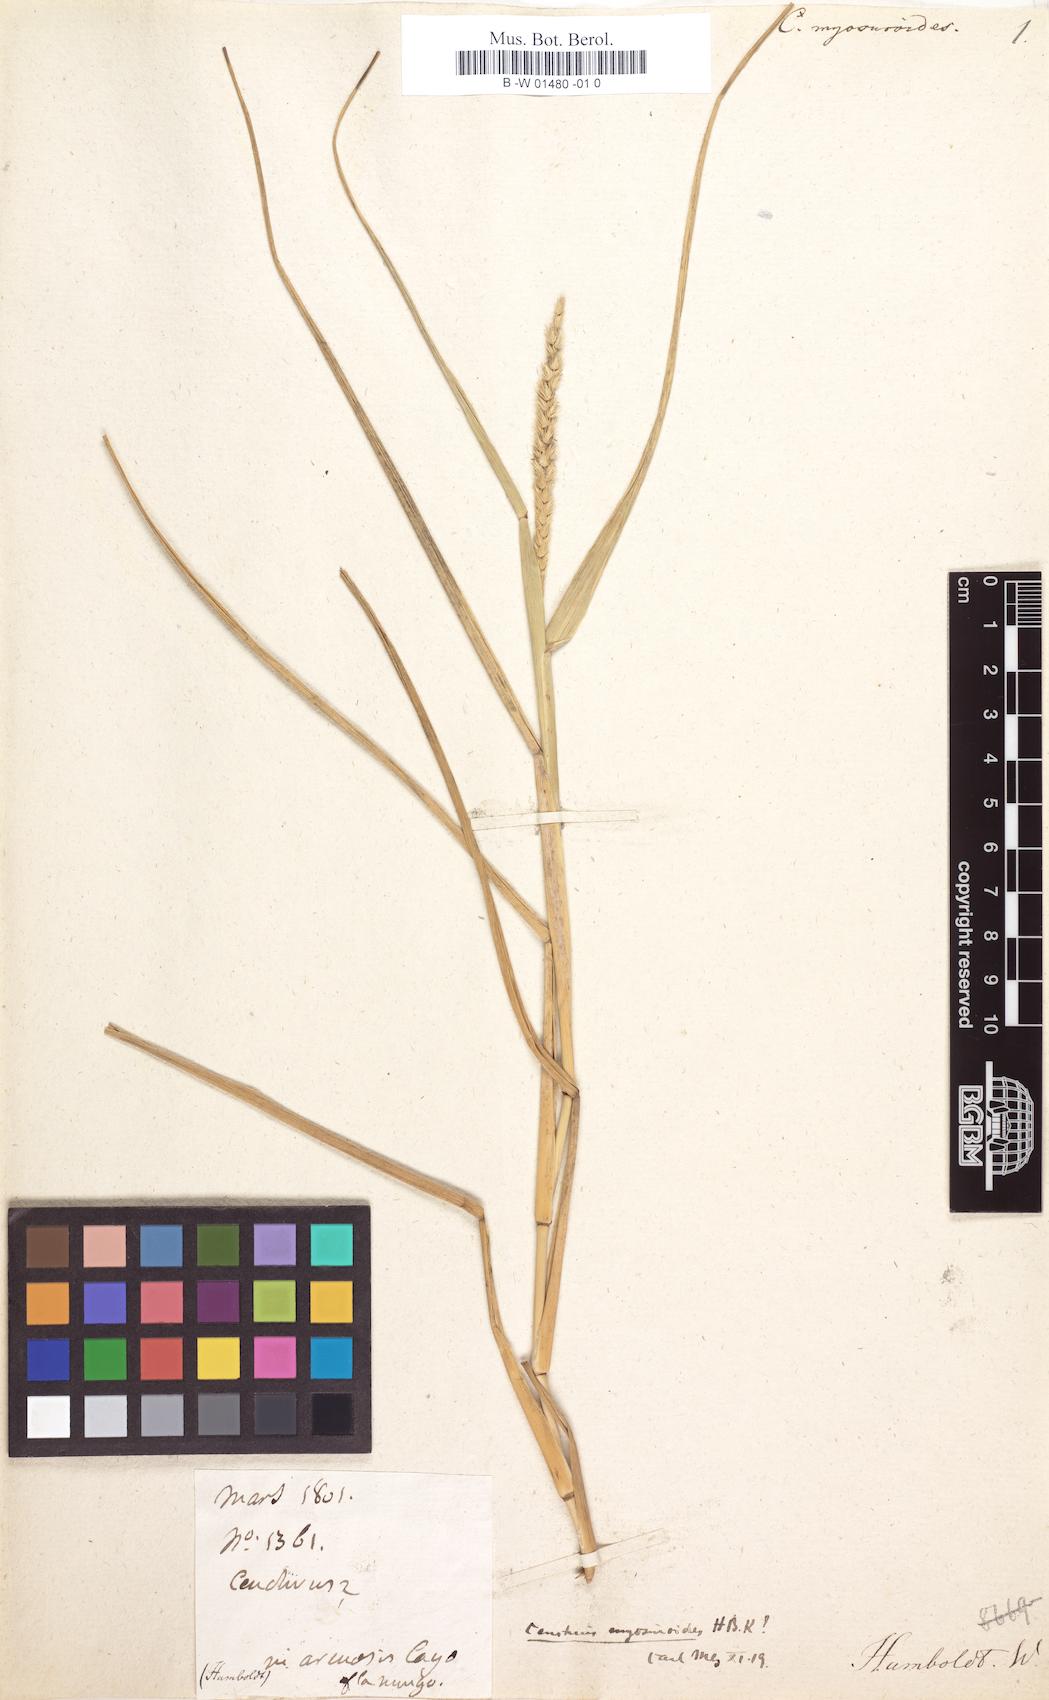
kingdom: Plantae
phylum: Tracheophyta
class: Liliopsida
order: Poales
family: Poaceae
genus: Cenchrus
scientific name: Cenchrus myosuroides
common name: Big sandbur
